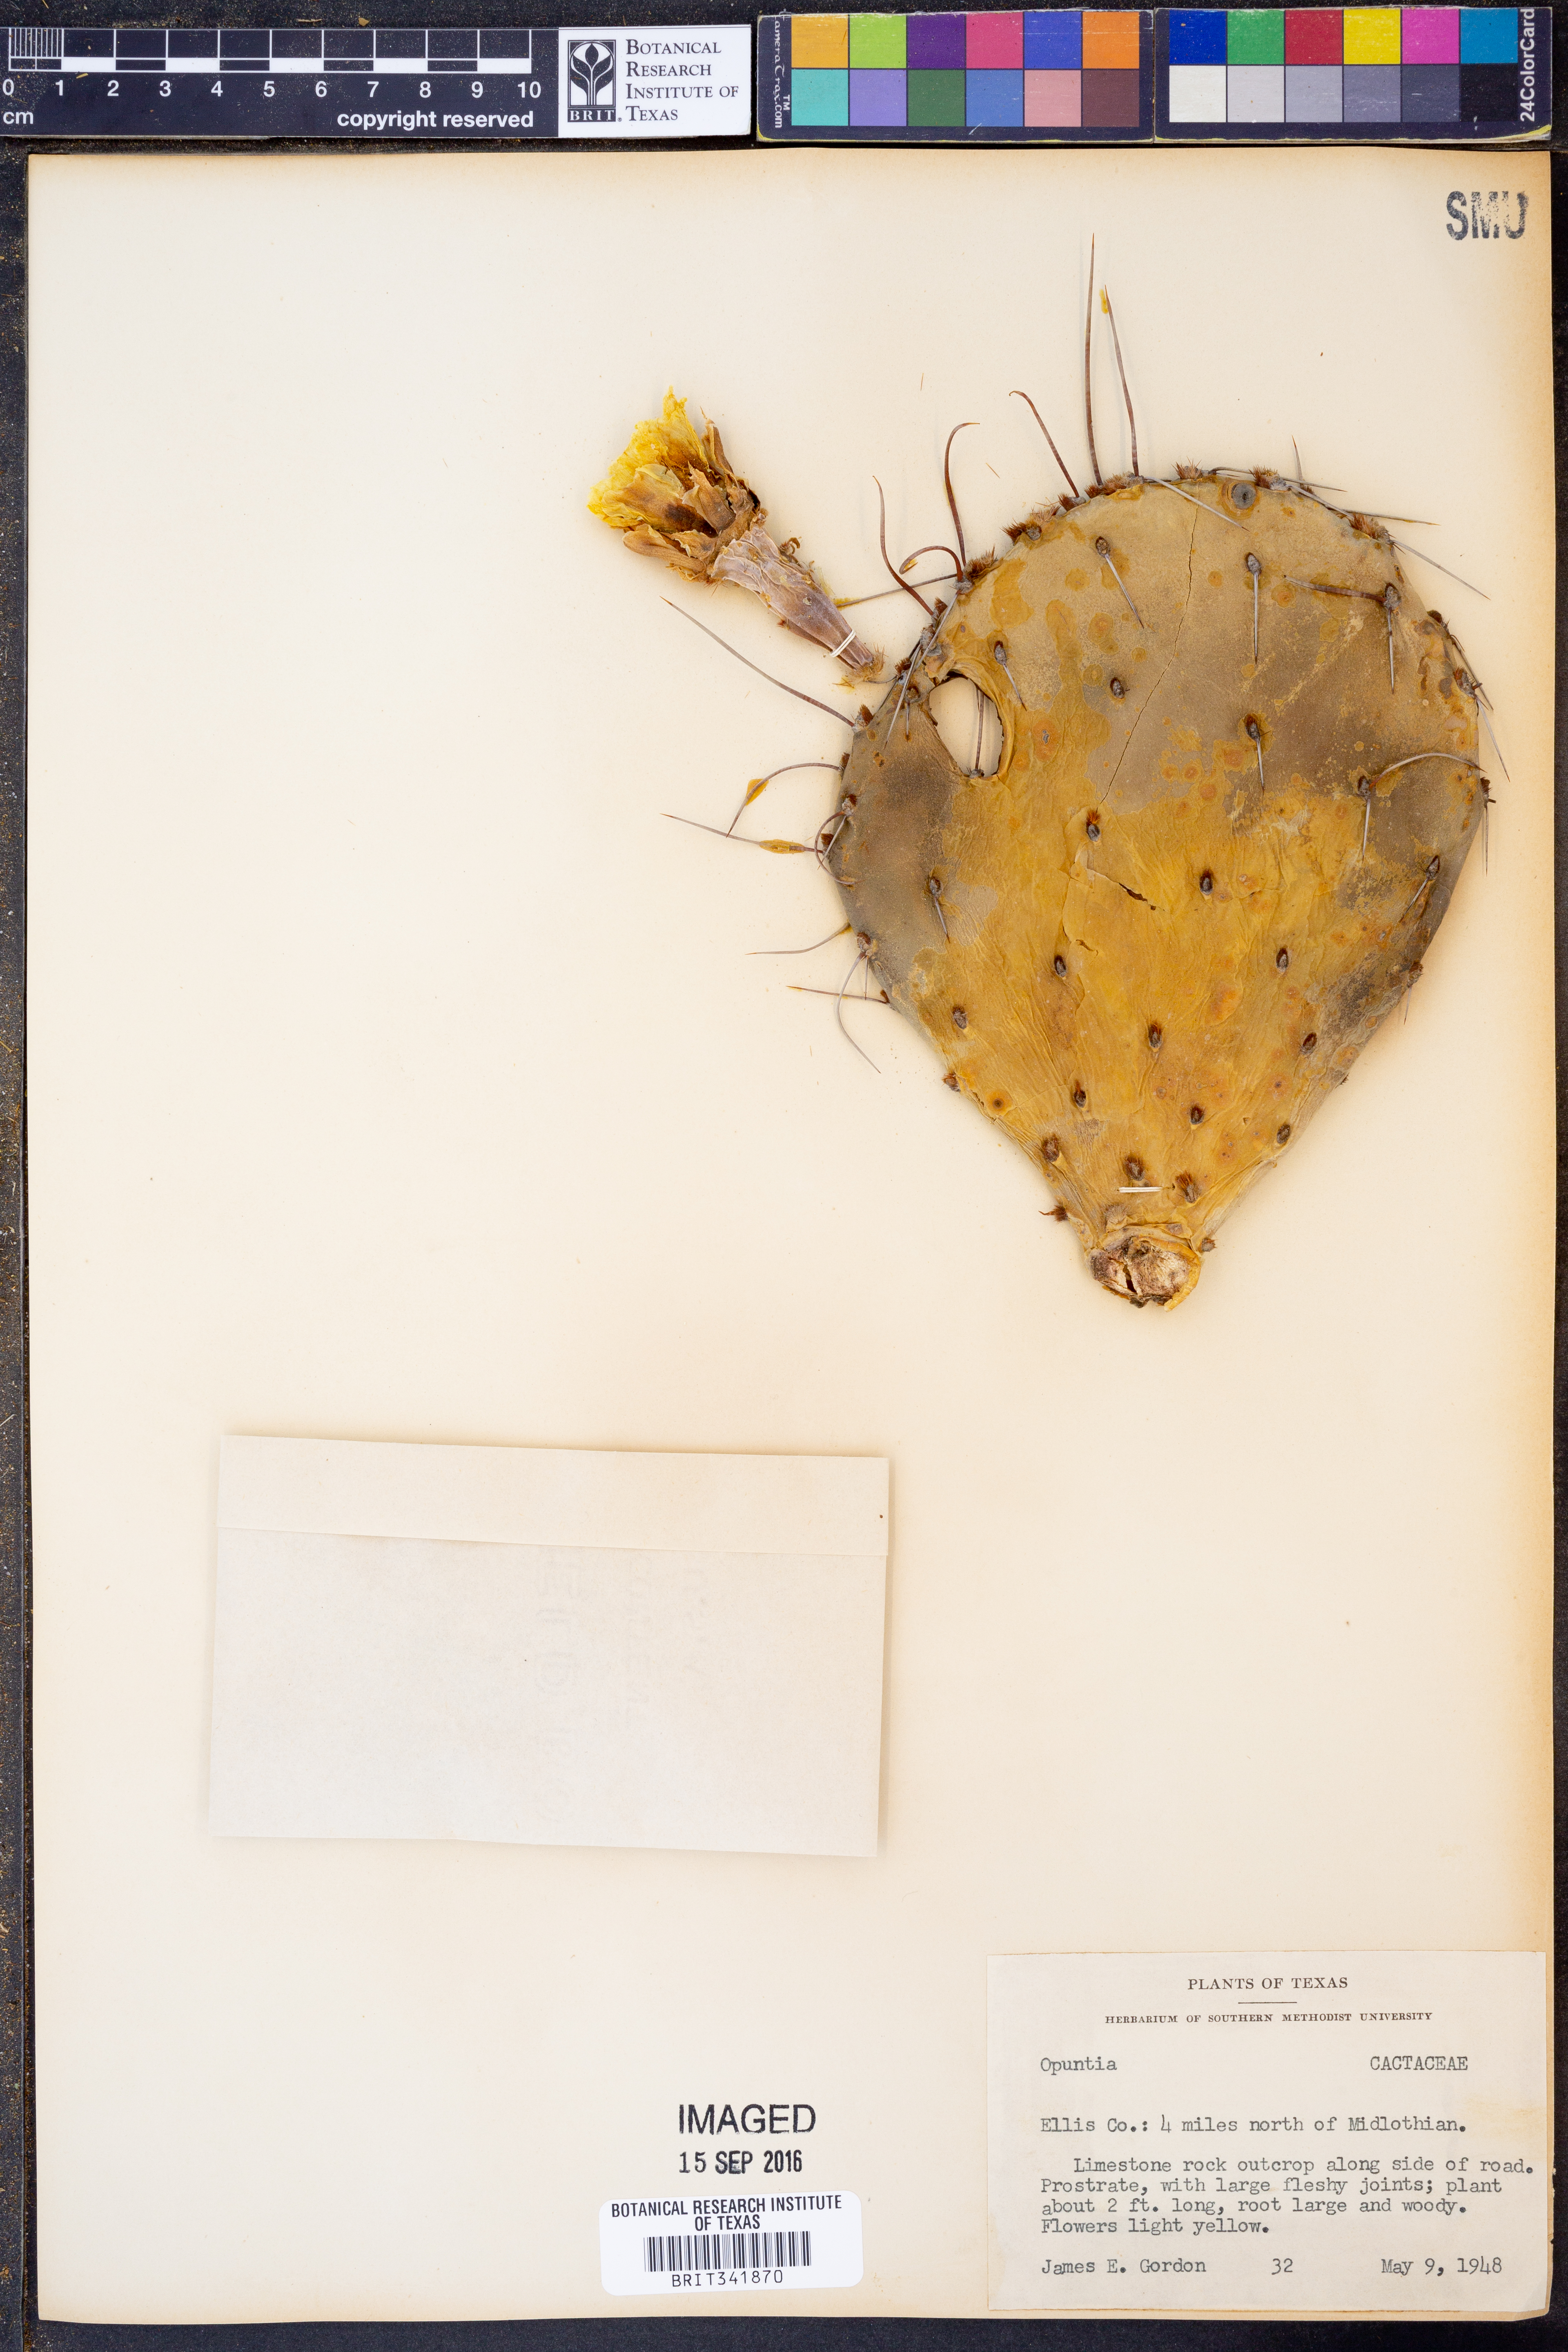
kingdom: Plantae
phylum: Tracheophyta
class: Magnoliopsida
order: Caryophyllales
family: Cactaceae
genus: Opuntia
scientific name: Opuntia
